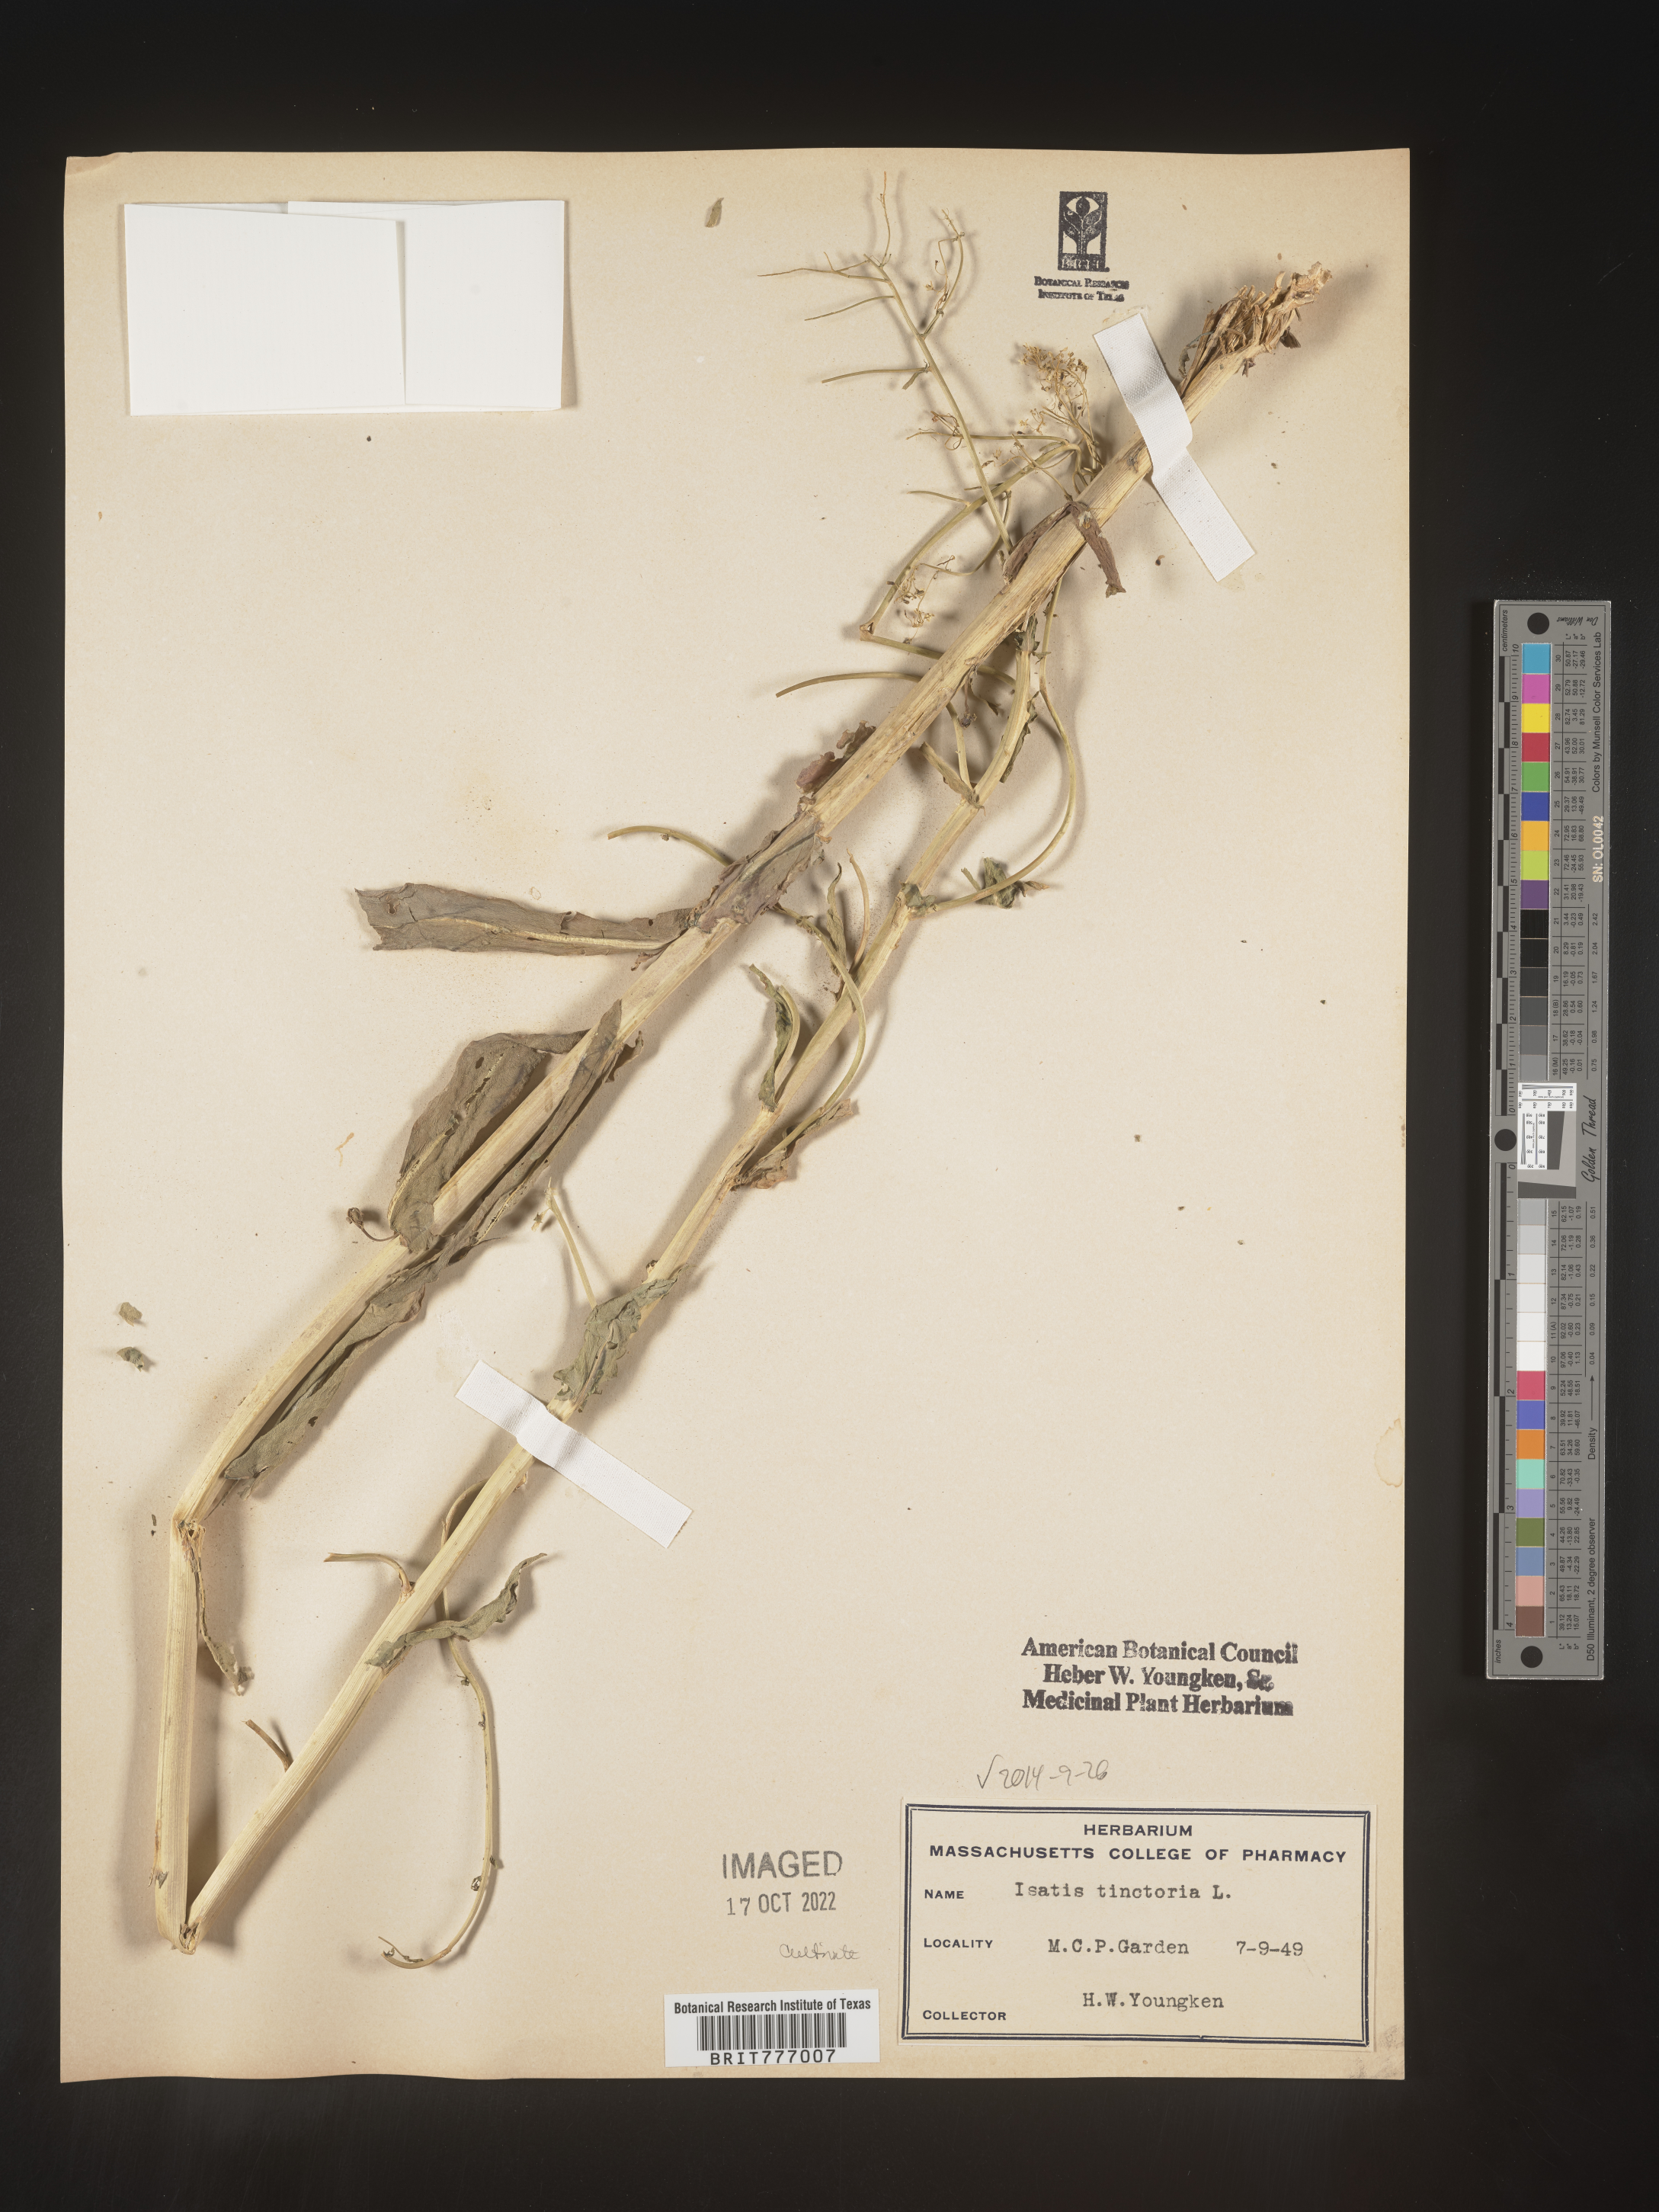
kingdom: Plantae
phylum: Tracheophyta
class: Magnoliopsida
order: Brassicales
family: Brassicaceae
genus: Isatis
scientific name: Isatis
